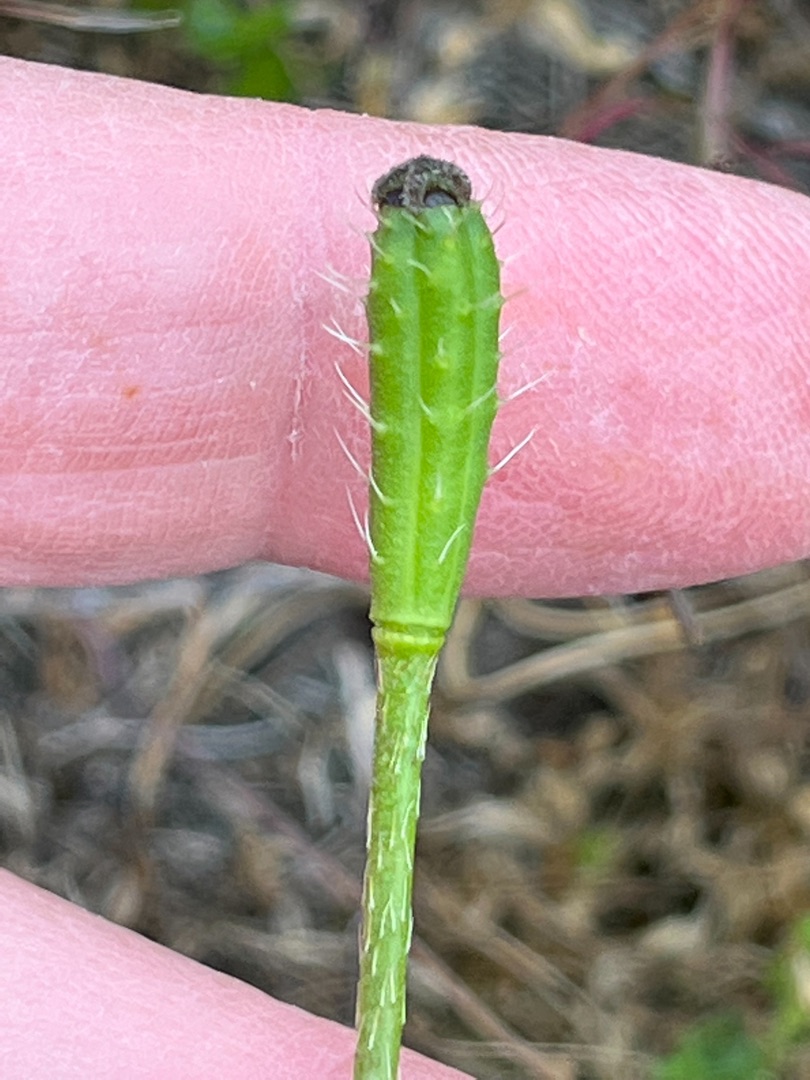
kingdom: Plantae
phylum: Tracheophyta
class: Magnoliopsida
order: Ranunculales
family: Papaveraceae
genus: Roemeria
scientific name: Roemeria argemone
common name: Kølle-valmue
